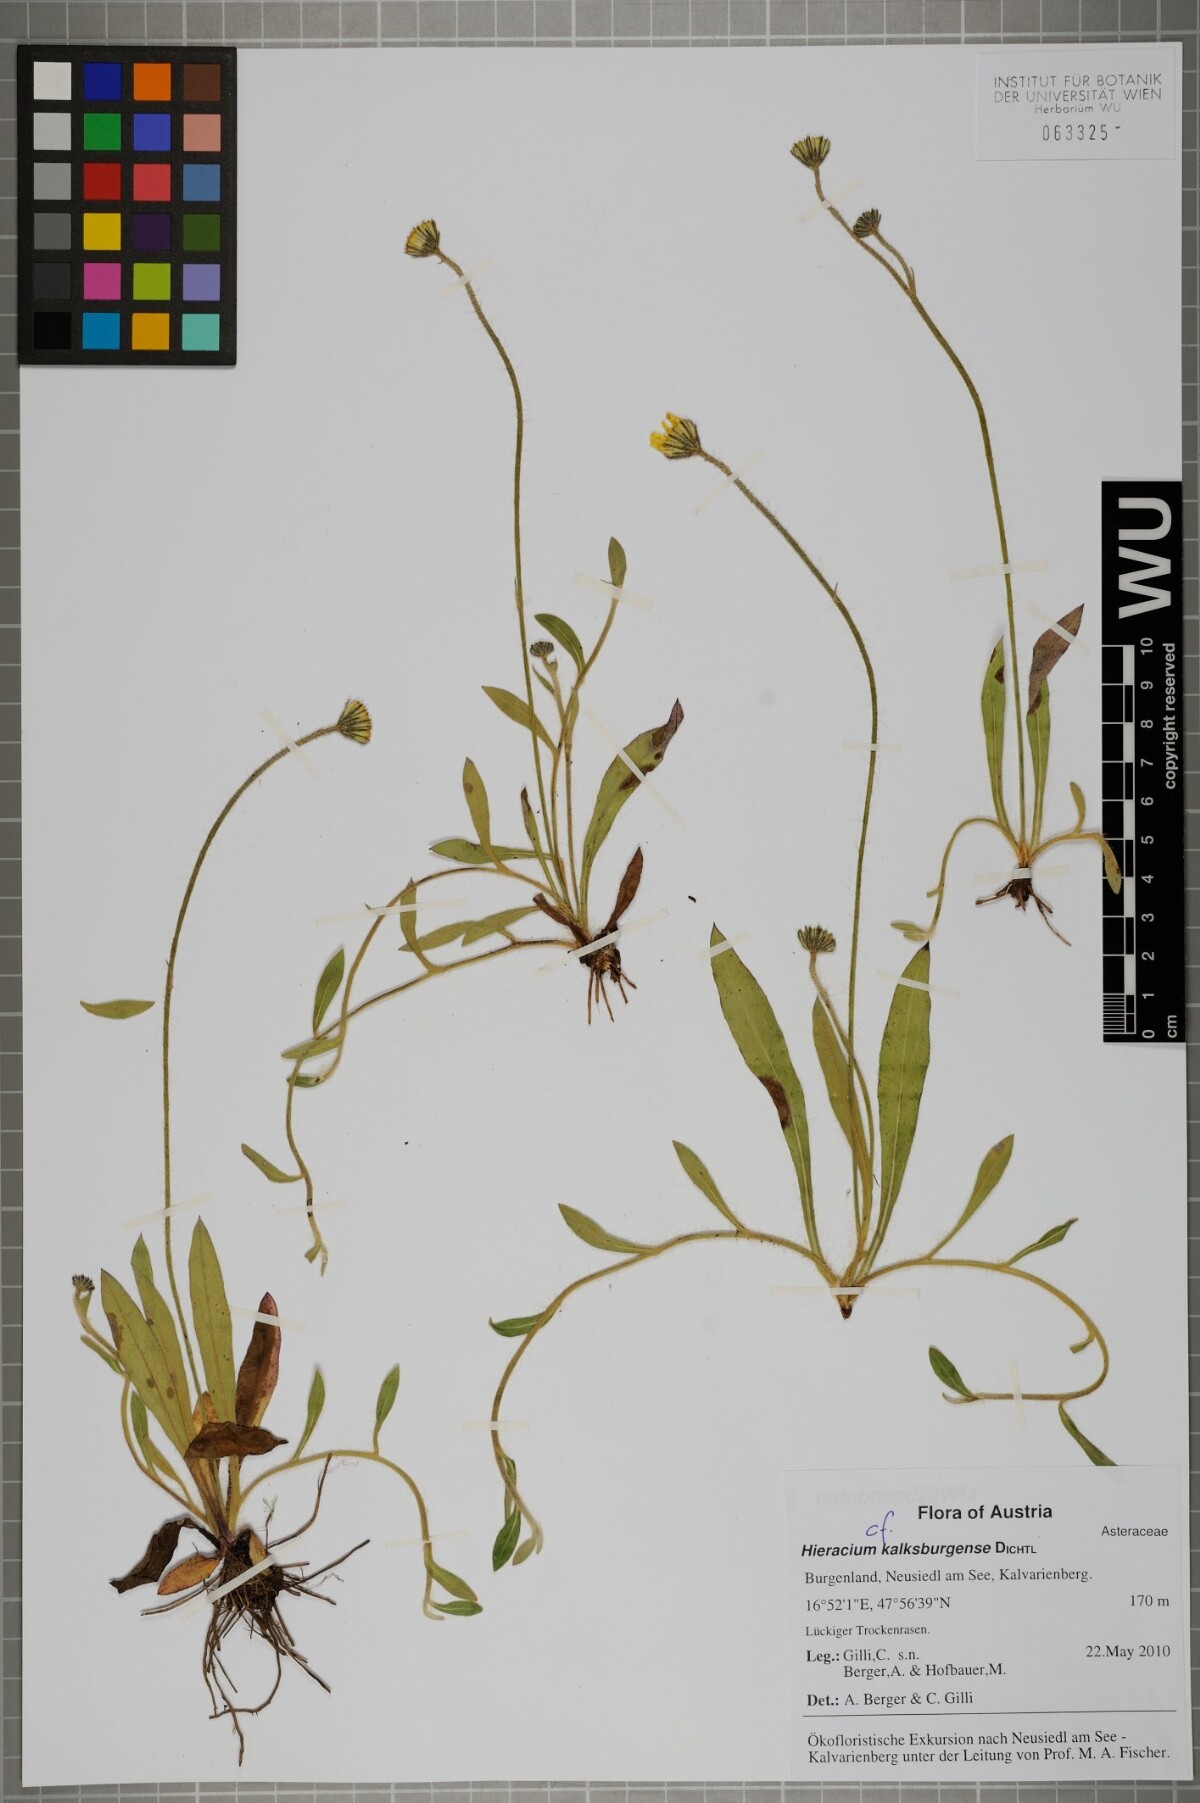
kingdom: Plantae
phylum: Tracheophyta
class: Magnoliopsida
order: Asterales
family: Asteraceae
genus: Pilosella
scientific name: Pilosella acutifolia
